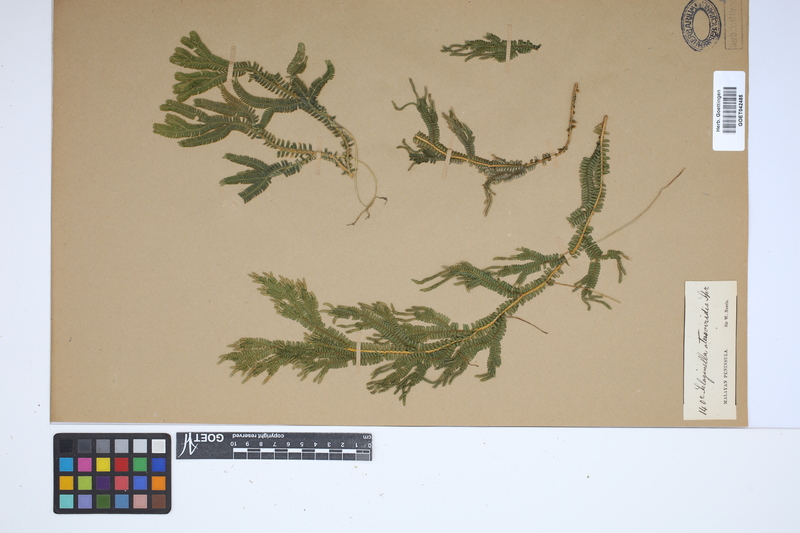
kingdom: Plantae
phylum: Tracheophyta
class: Lycopodiopsida
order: Selaginellales
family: Selaginellaceae
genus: Selaginella
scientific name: Selaginella intermedia
